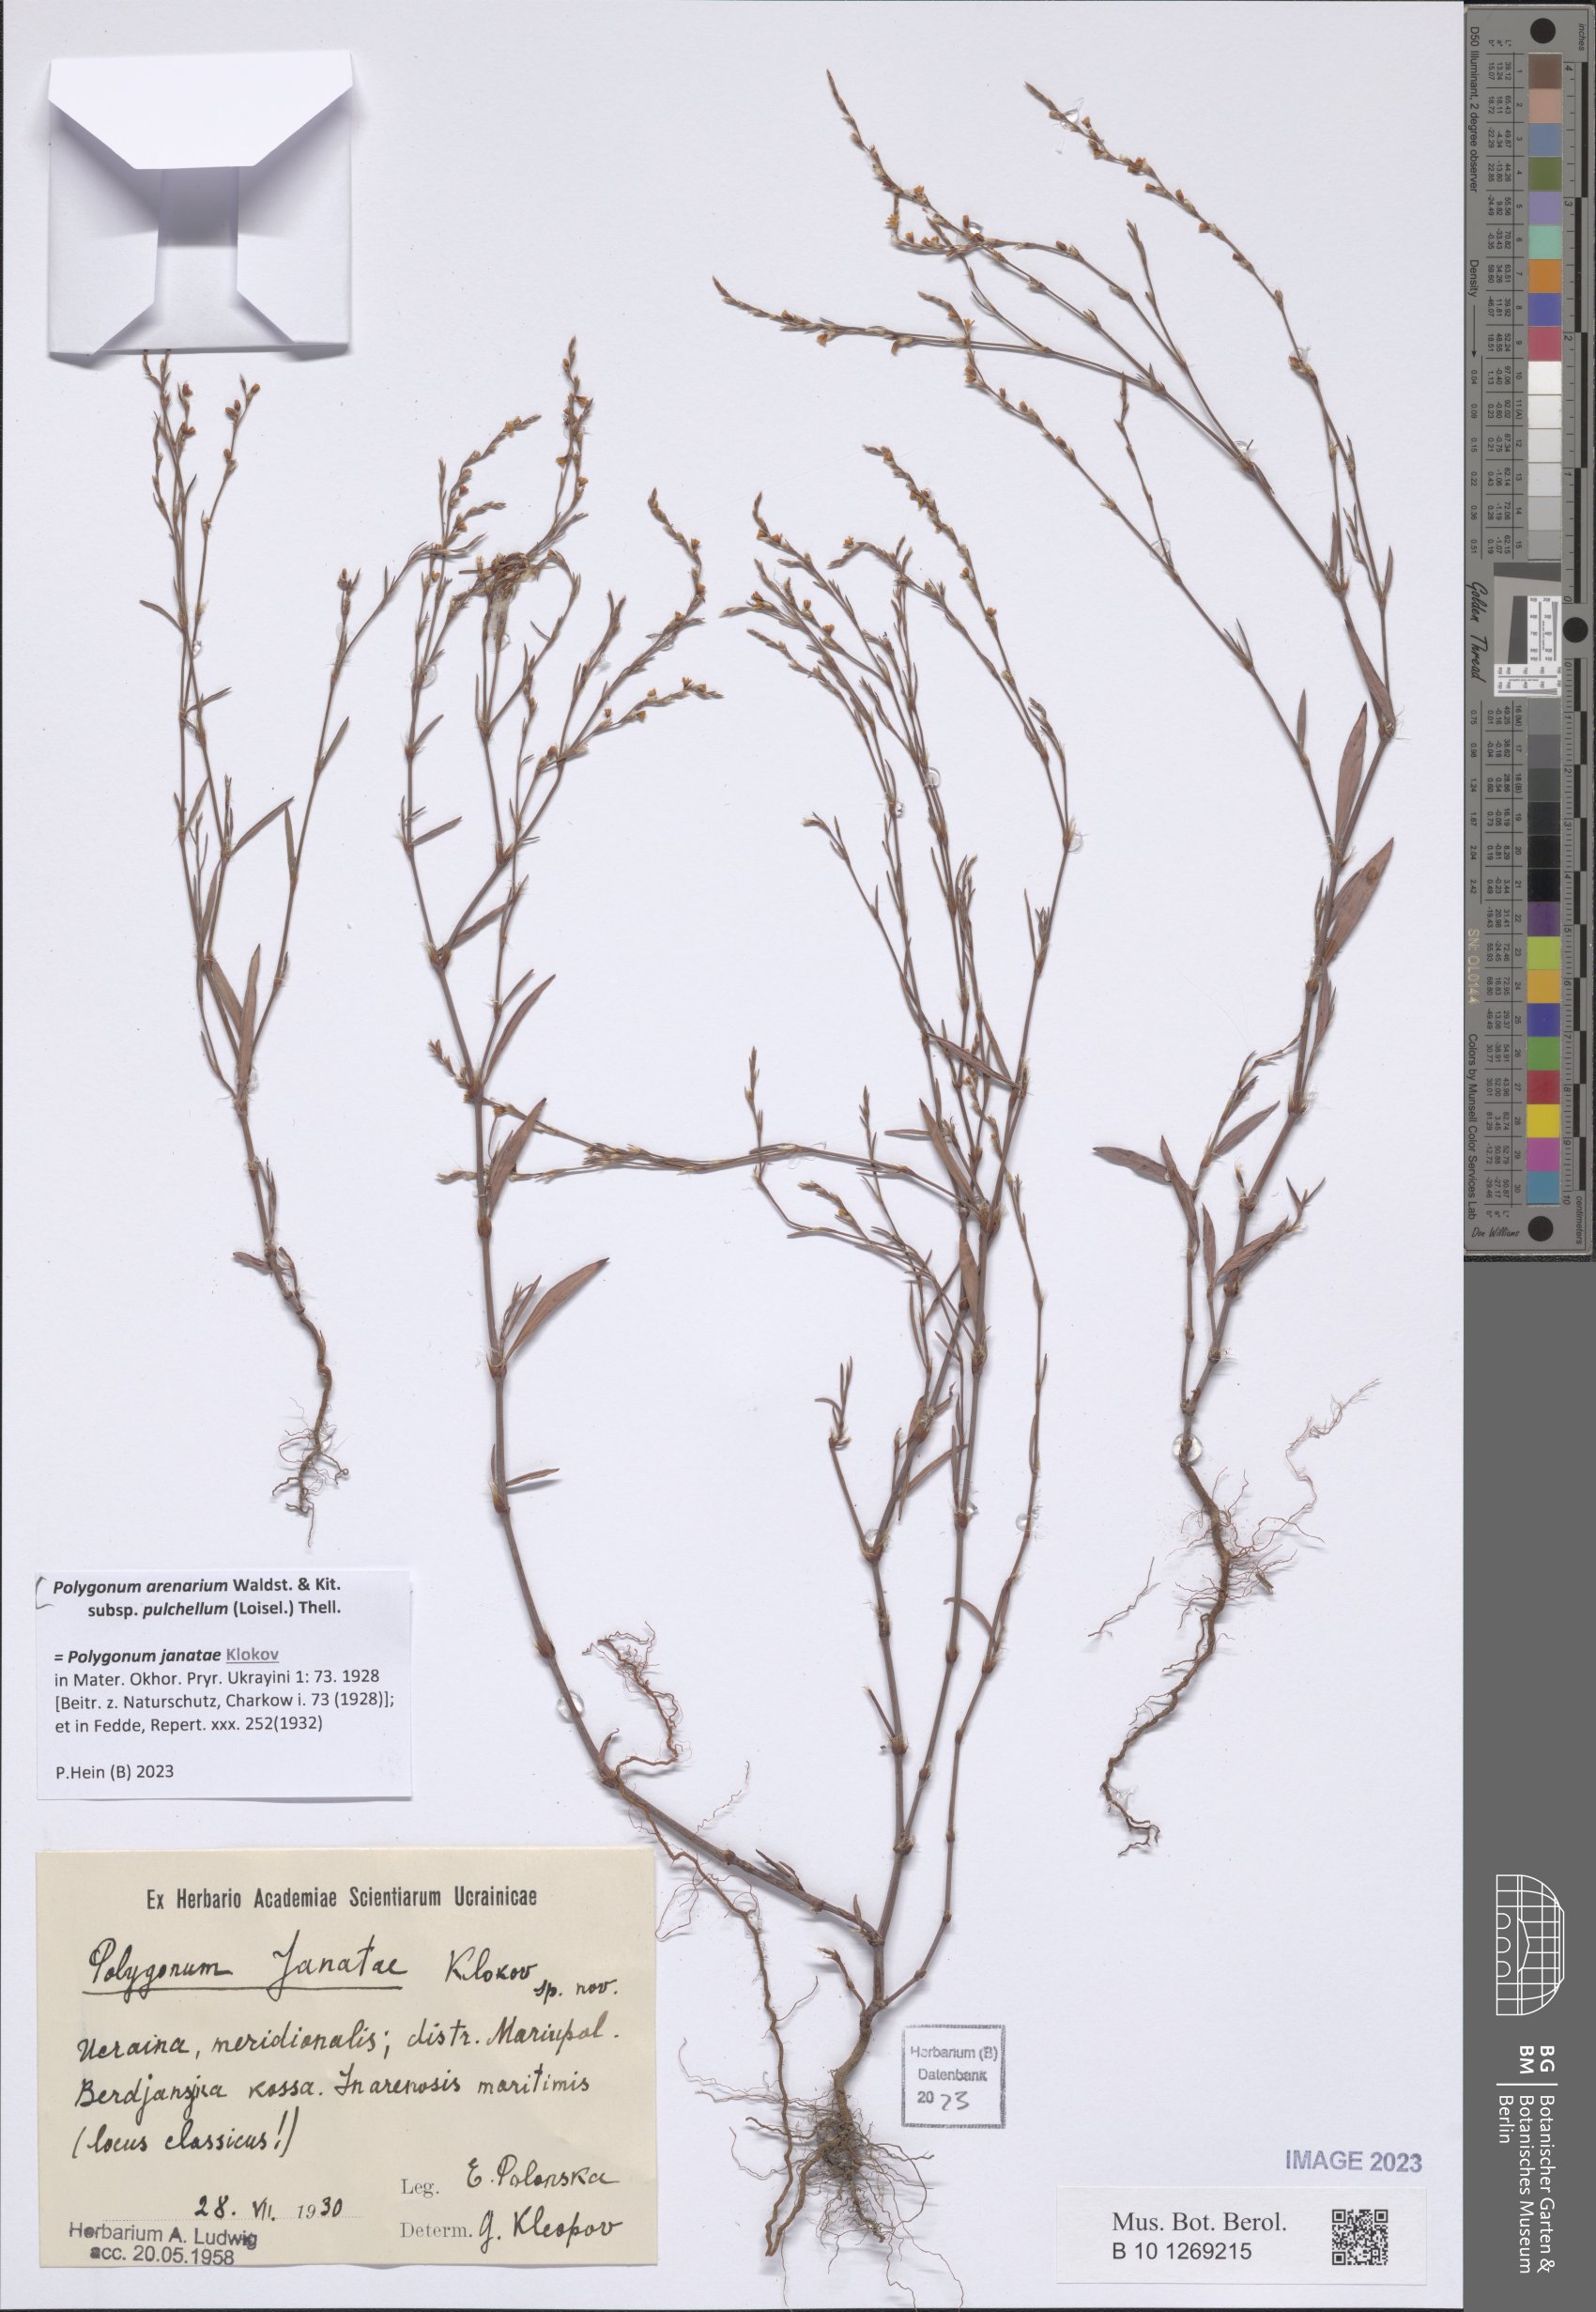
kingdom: Plantae
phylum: Tracheophyta
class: Magnoliopsida
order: Caryophyllales
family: Polygonaceae
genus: Polygonum
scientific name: Polygonum arenarium
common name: Lesser red-knotgrass
